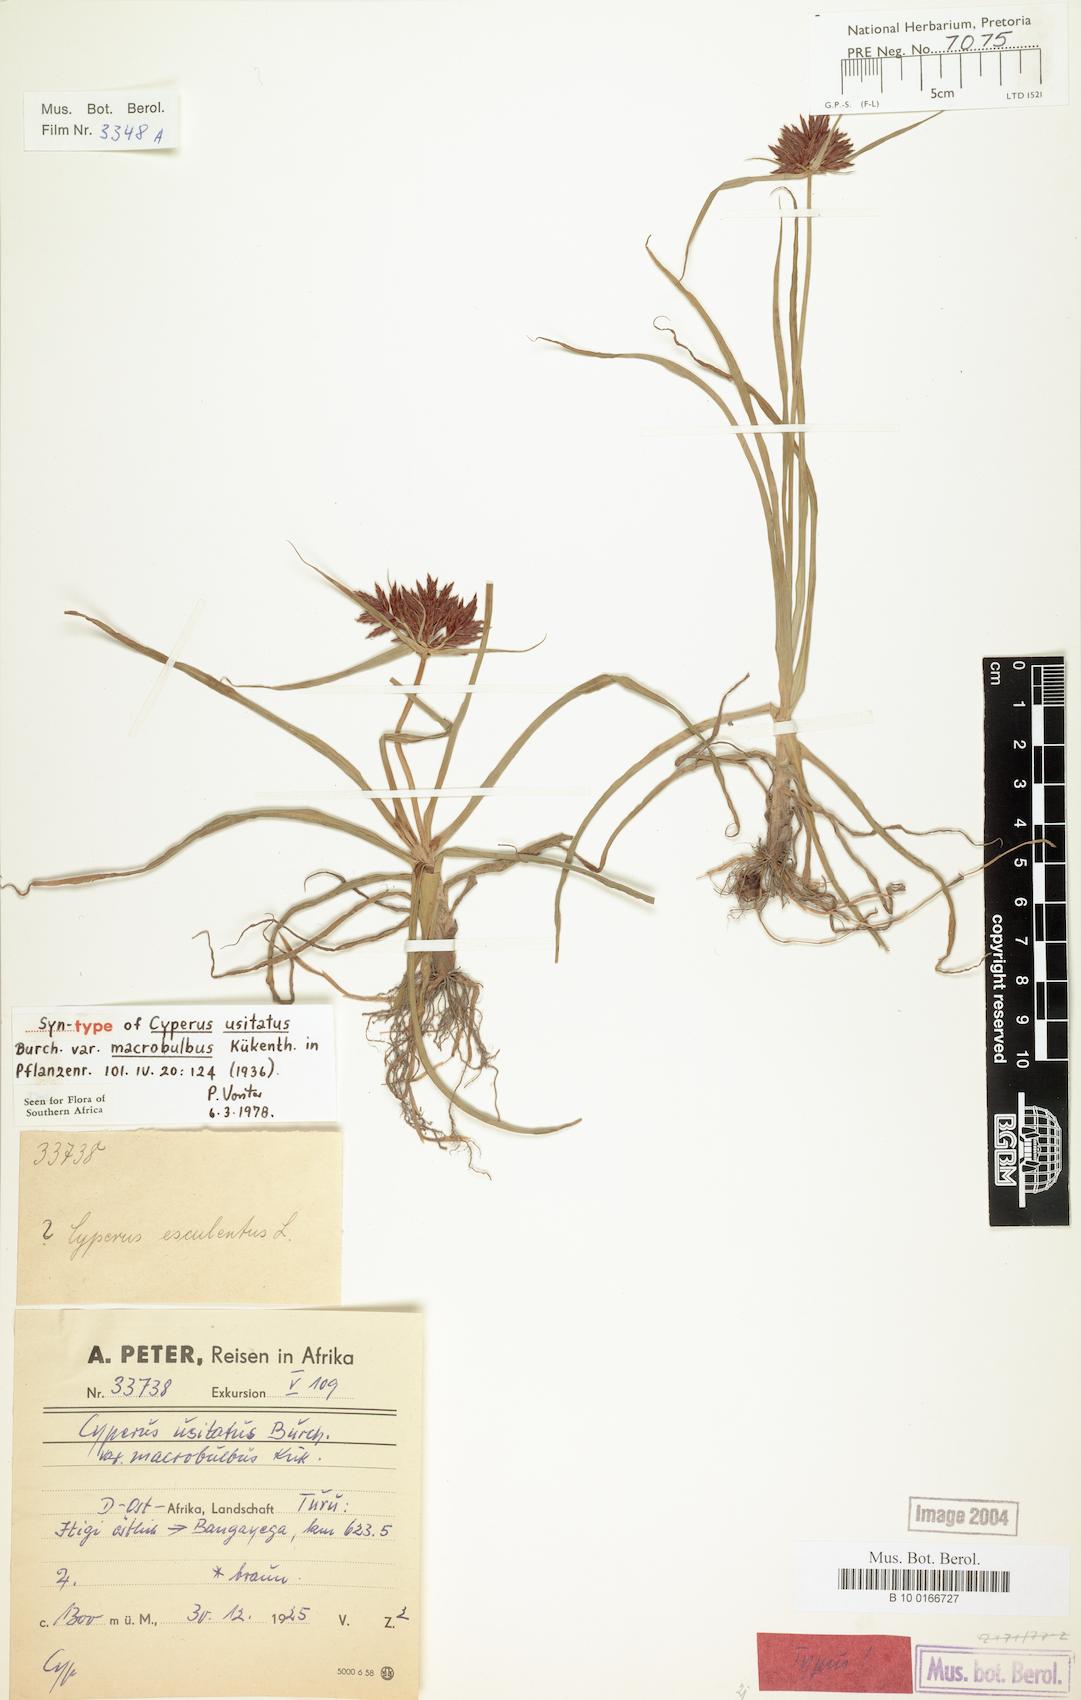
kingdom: Plantae
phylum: Tracheophyta
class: Liliopsida
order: Poales
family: Cyperaceae
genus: Cyperus
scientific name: Cyperus usitatus
